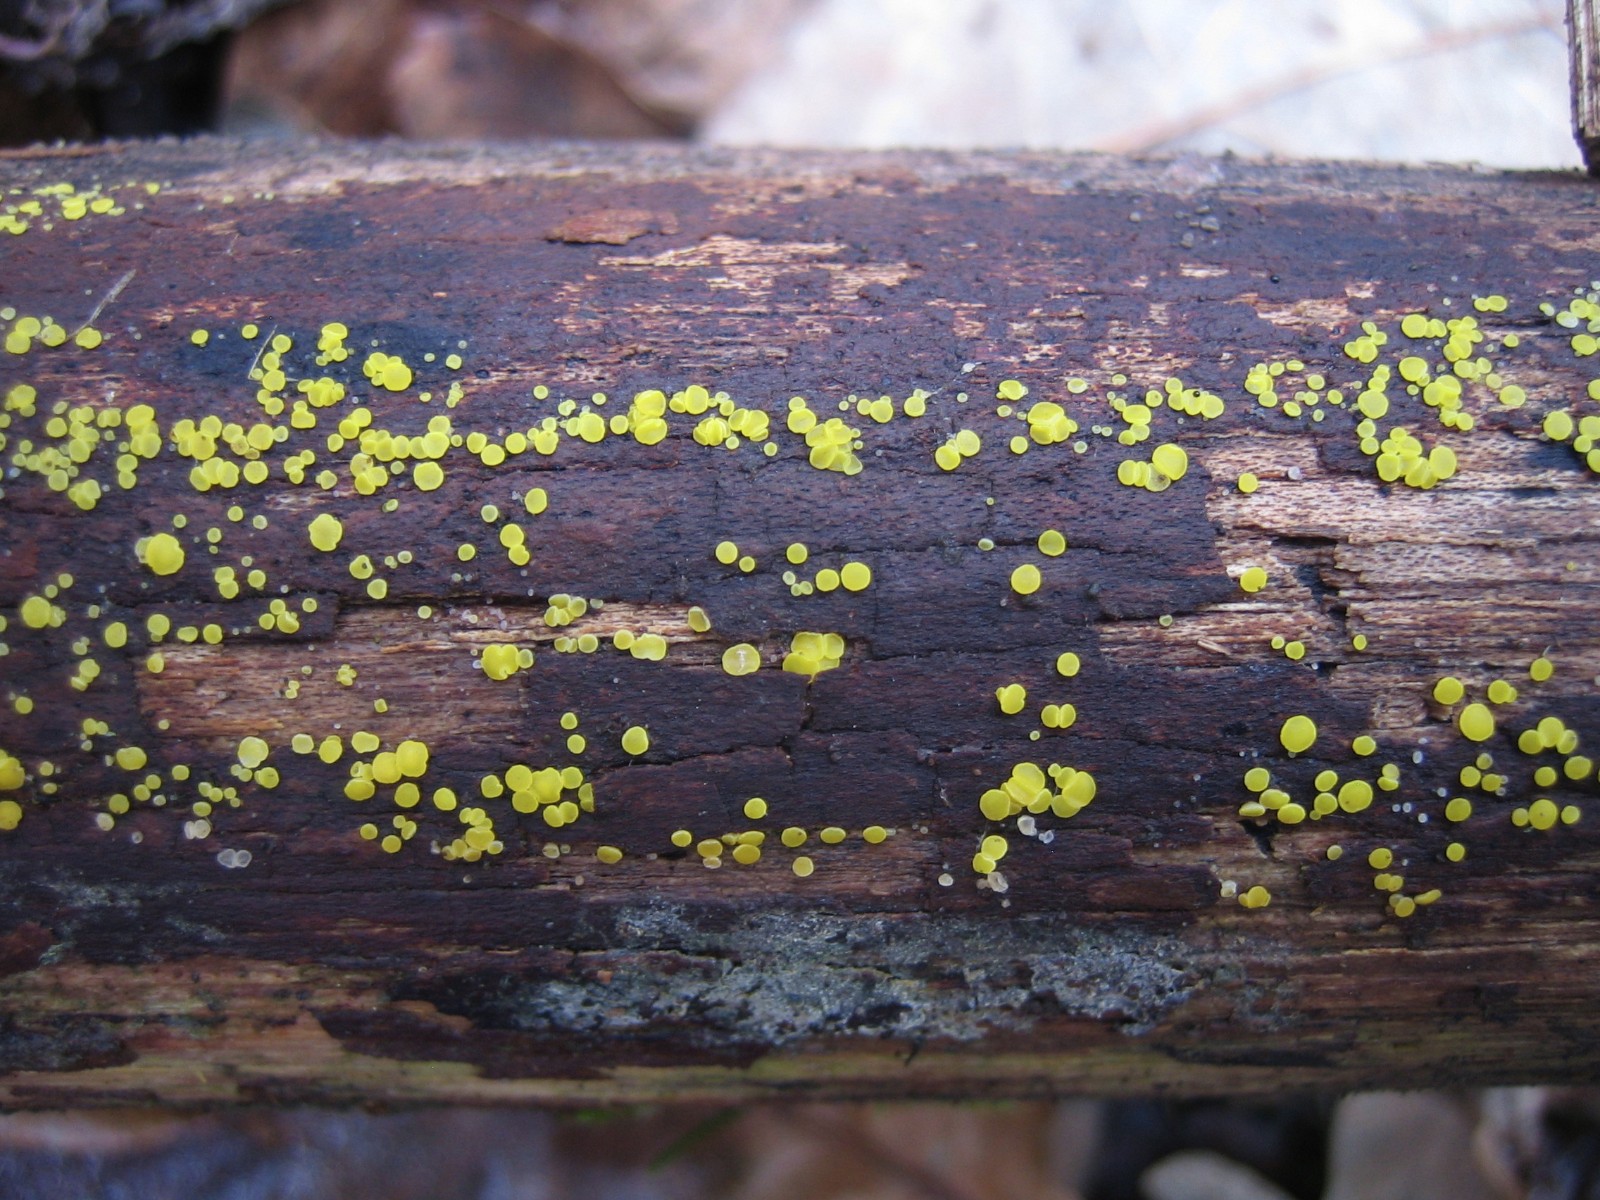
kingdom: Fungi
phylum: Ascomycota
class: Leotiomycetes
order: Helotiales
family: Pezizellaceae
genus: Calycina
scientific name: Calycina claroflava
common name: snyltende gulskive
